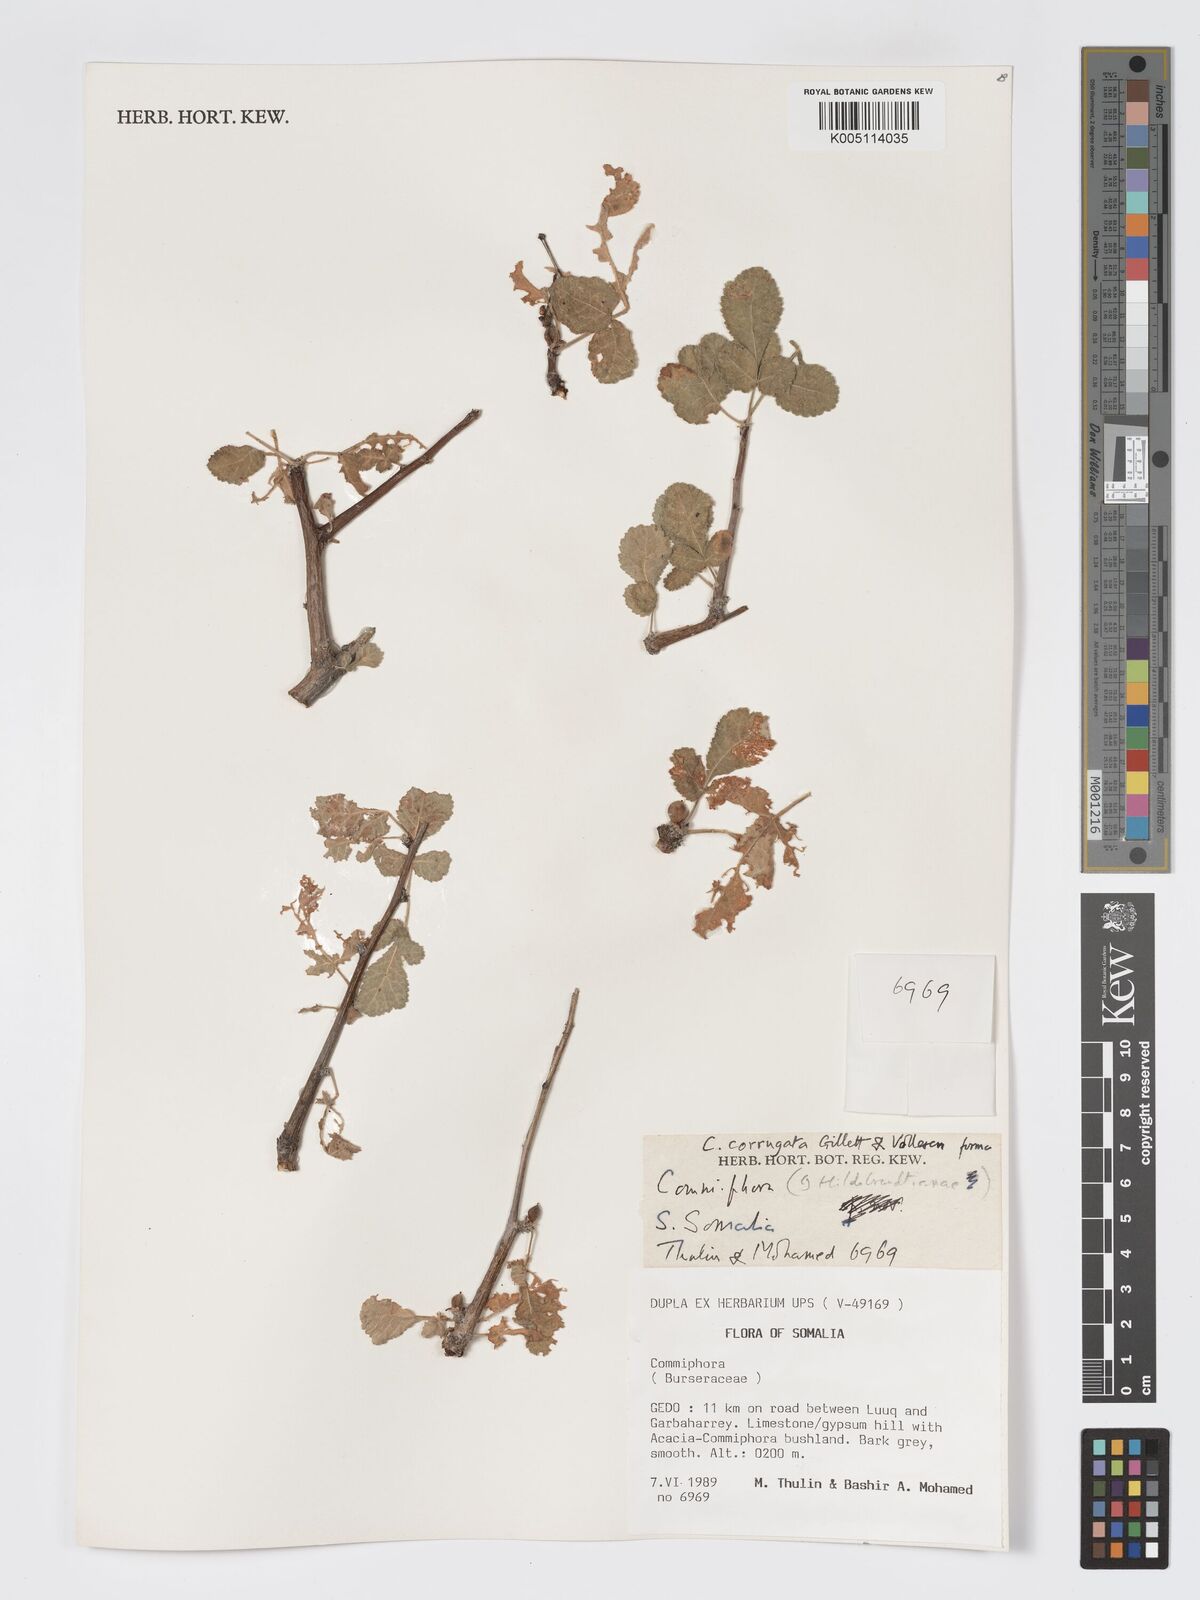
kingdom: Plantae
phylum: Tracheophyta
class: Magnoliopsida
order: Sapindales
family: Burseraceae
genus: Commiphora
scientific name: Commiphora corrugata
